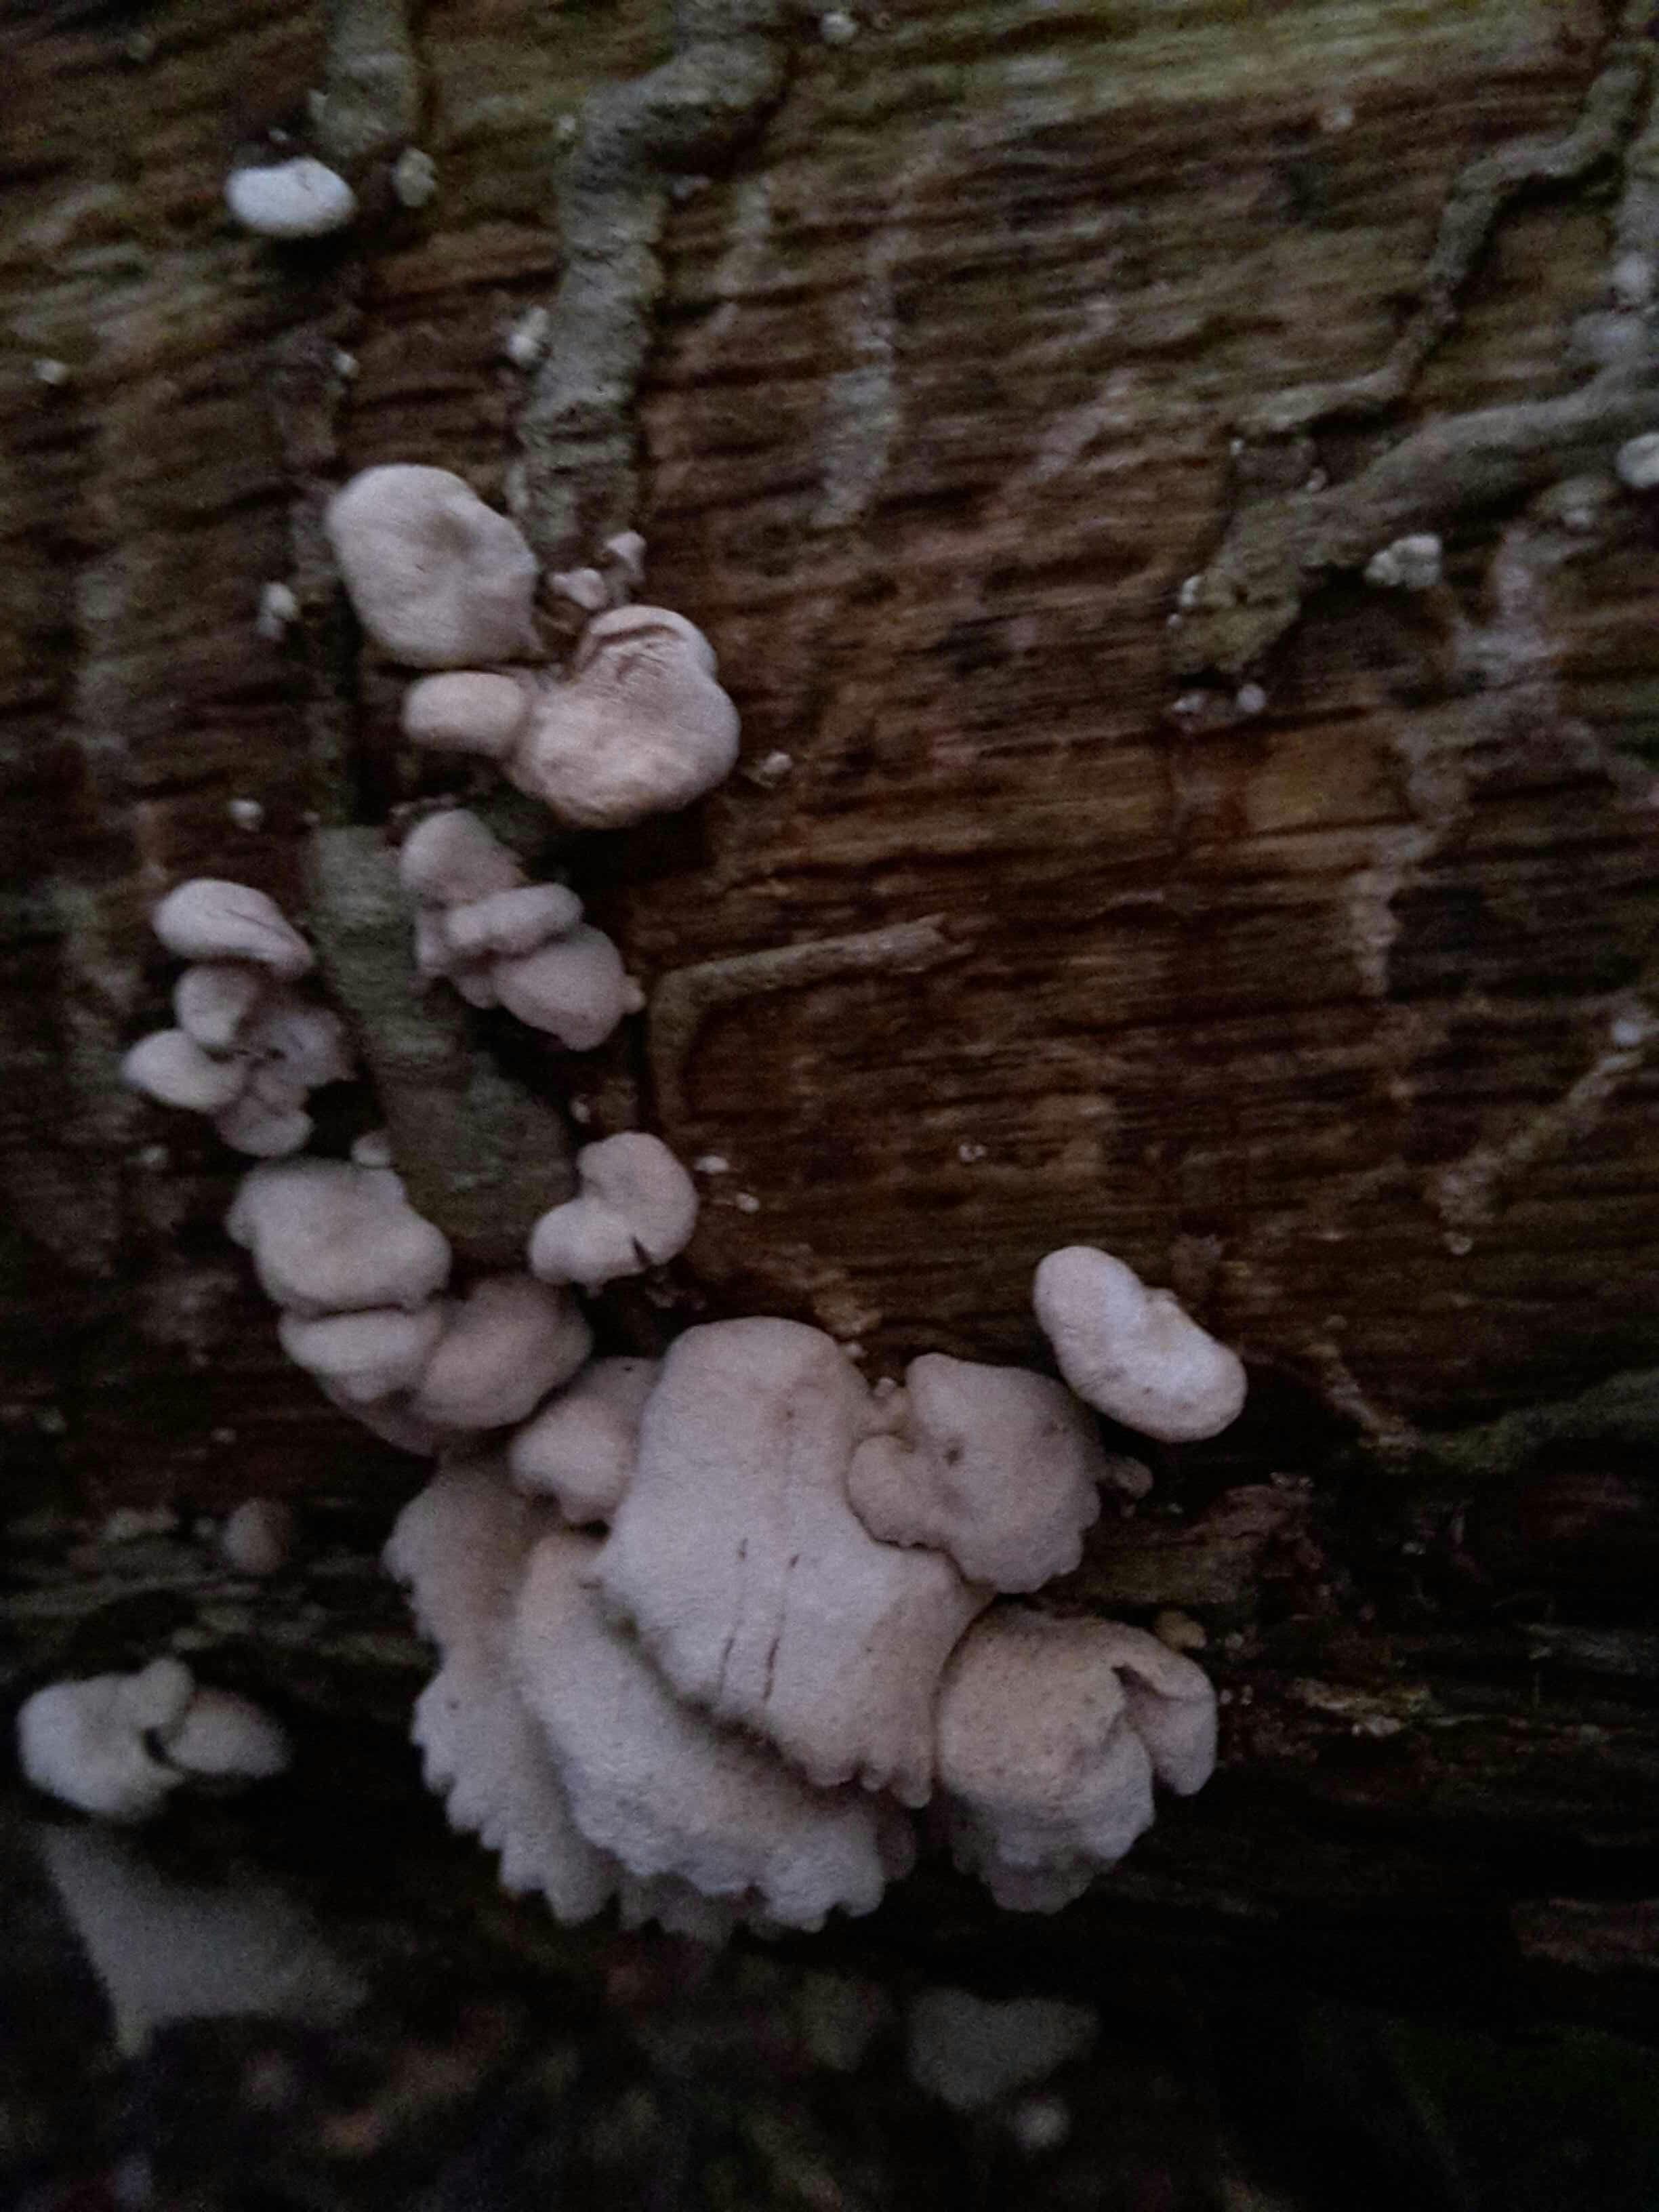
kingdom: Fungi
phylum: Basidiomycota
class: Agaricomycetes
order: Agaricales
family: Mycenaceae
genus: Panellus
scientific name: Panellus stipticus
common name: kliddet epaulethat
